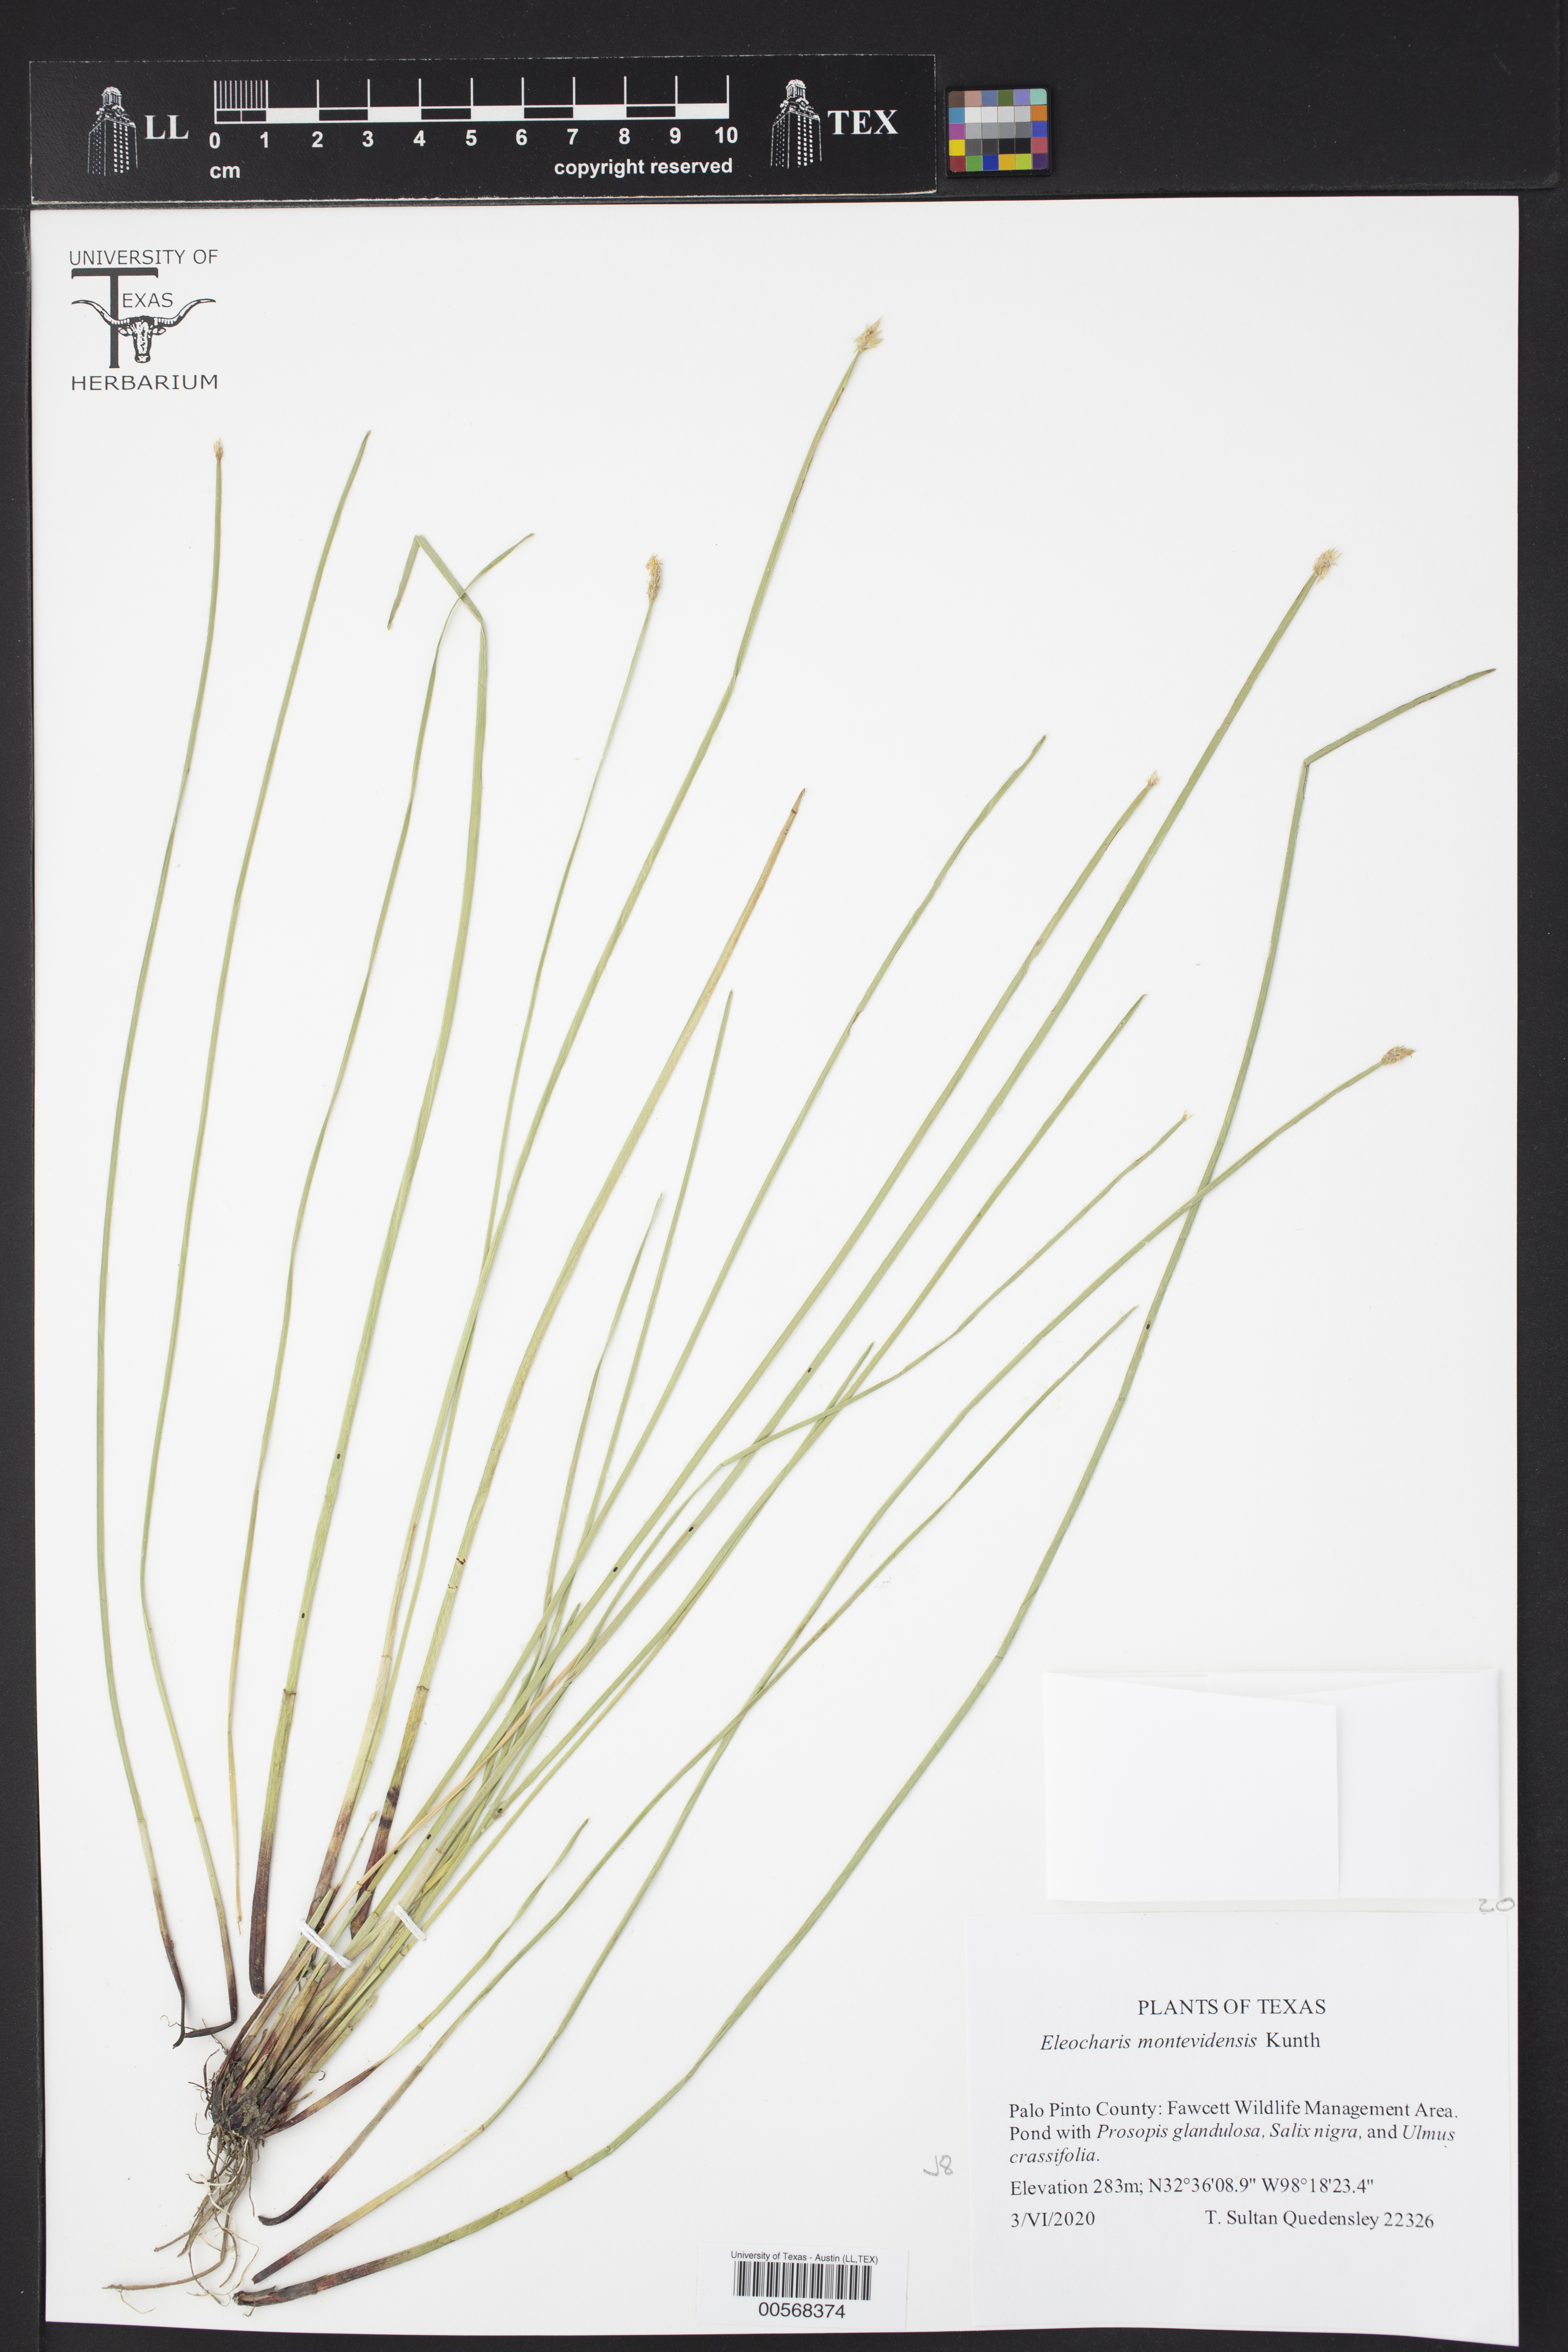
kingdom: Plantae
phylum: Tracheophyta
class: Liliopsida
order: Poales
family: Cyperaceae
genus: Eleocharis
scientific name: Eleocharis montevidensis
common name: Sand spike-rush
